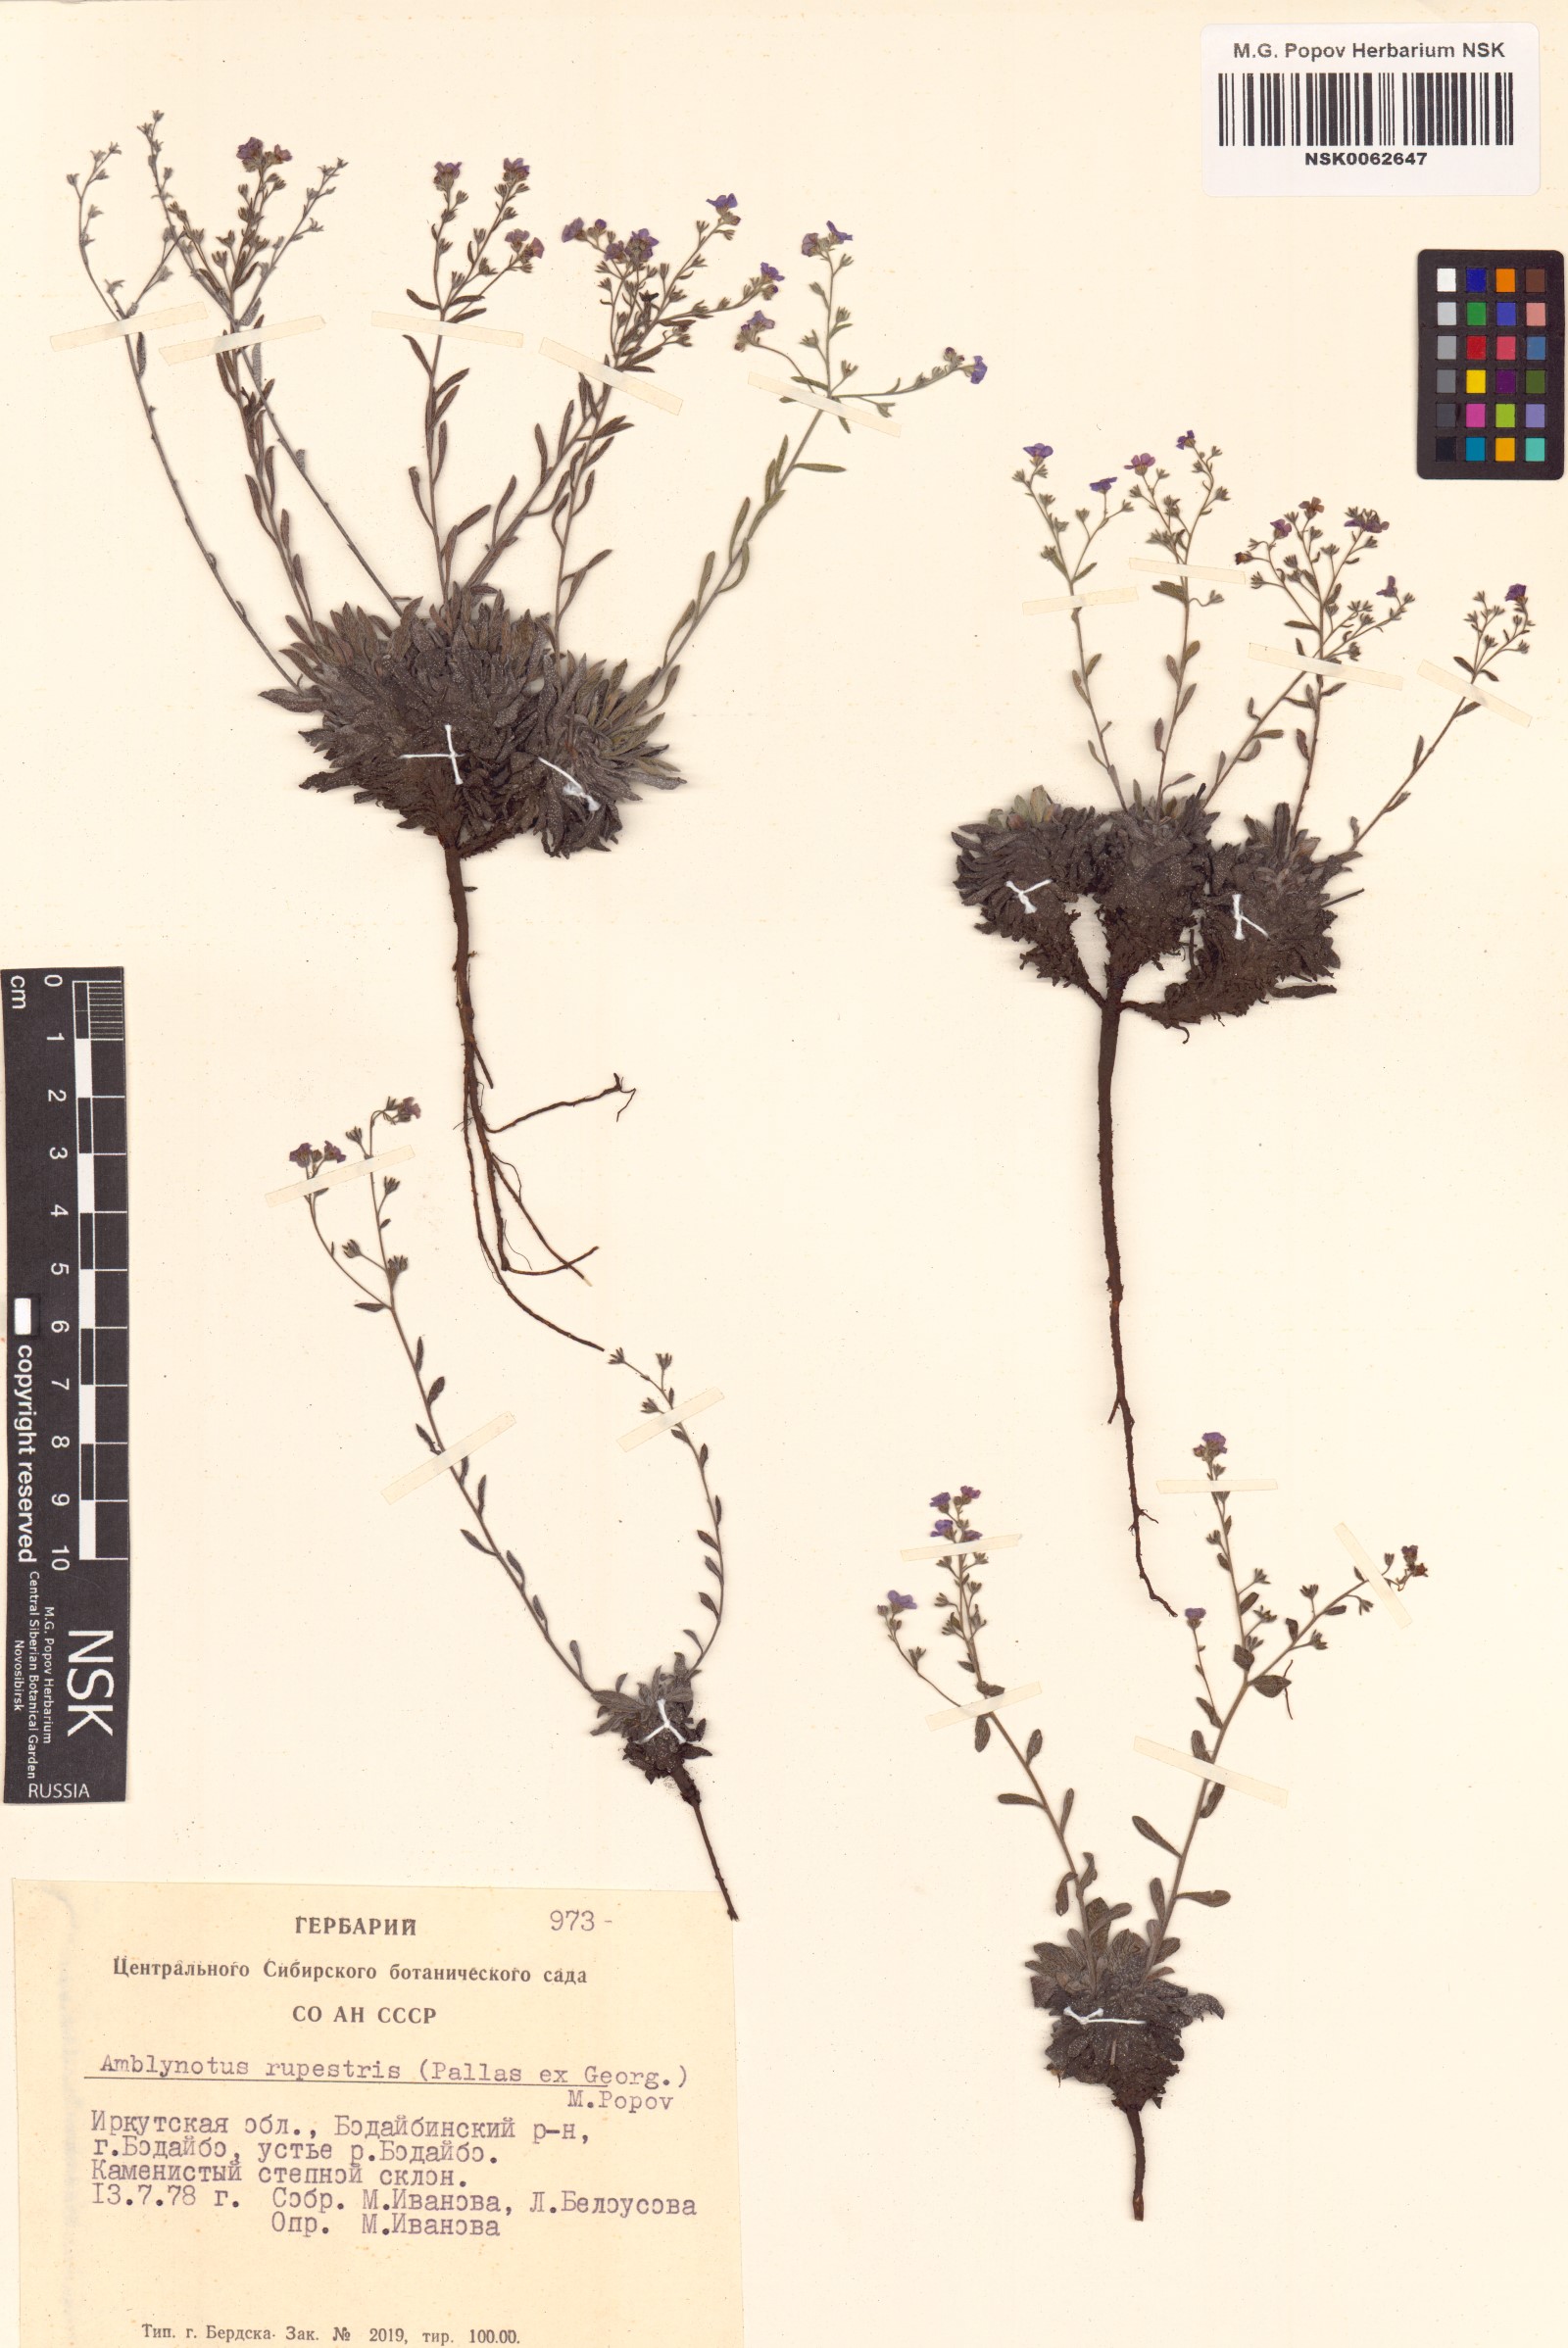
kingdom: Plantae
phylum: Tracheophyta
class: Magnoliopsida
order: Boraginales
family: Boraginaceae
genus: Eritrichium
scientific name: Eritrichium rupestre
